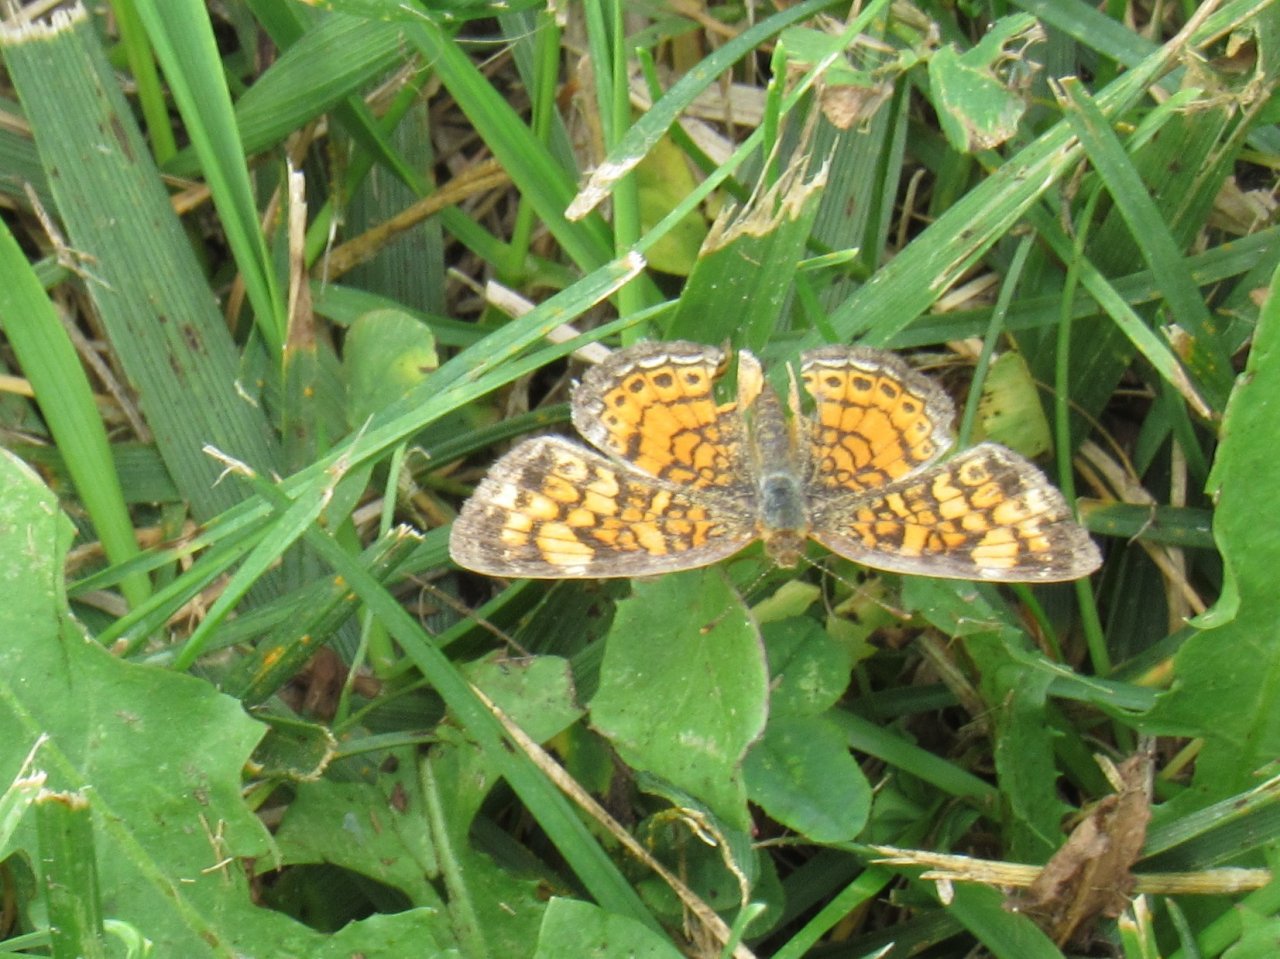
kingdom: Animalia
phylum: Arthropoda
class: Insecta
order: Lepidoptera
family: Nymphalidae
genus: Phyciodes
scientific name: Phyciodes tharos
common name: Pearl Crescent
